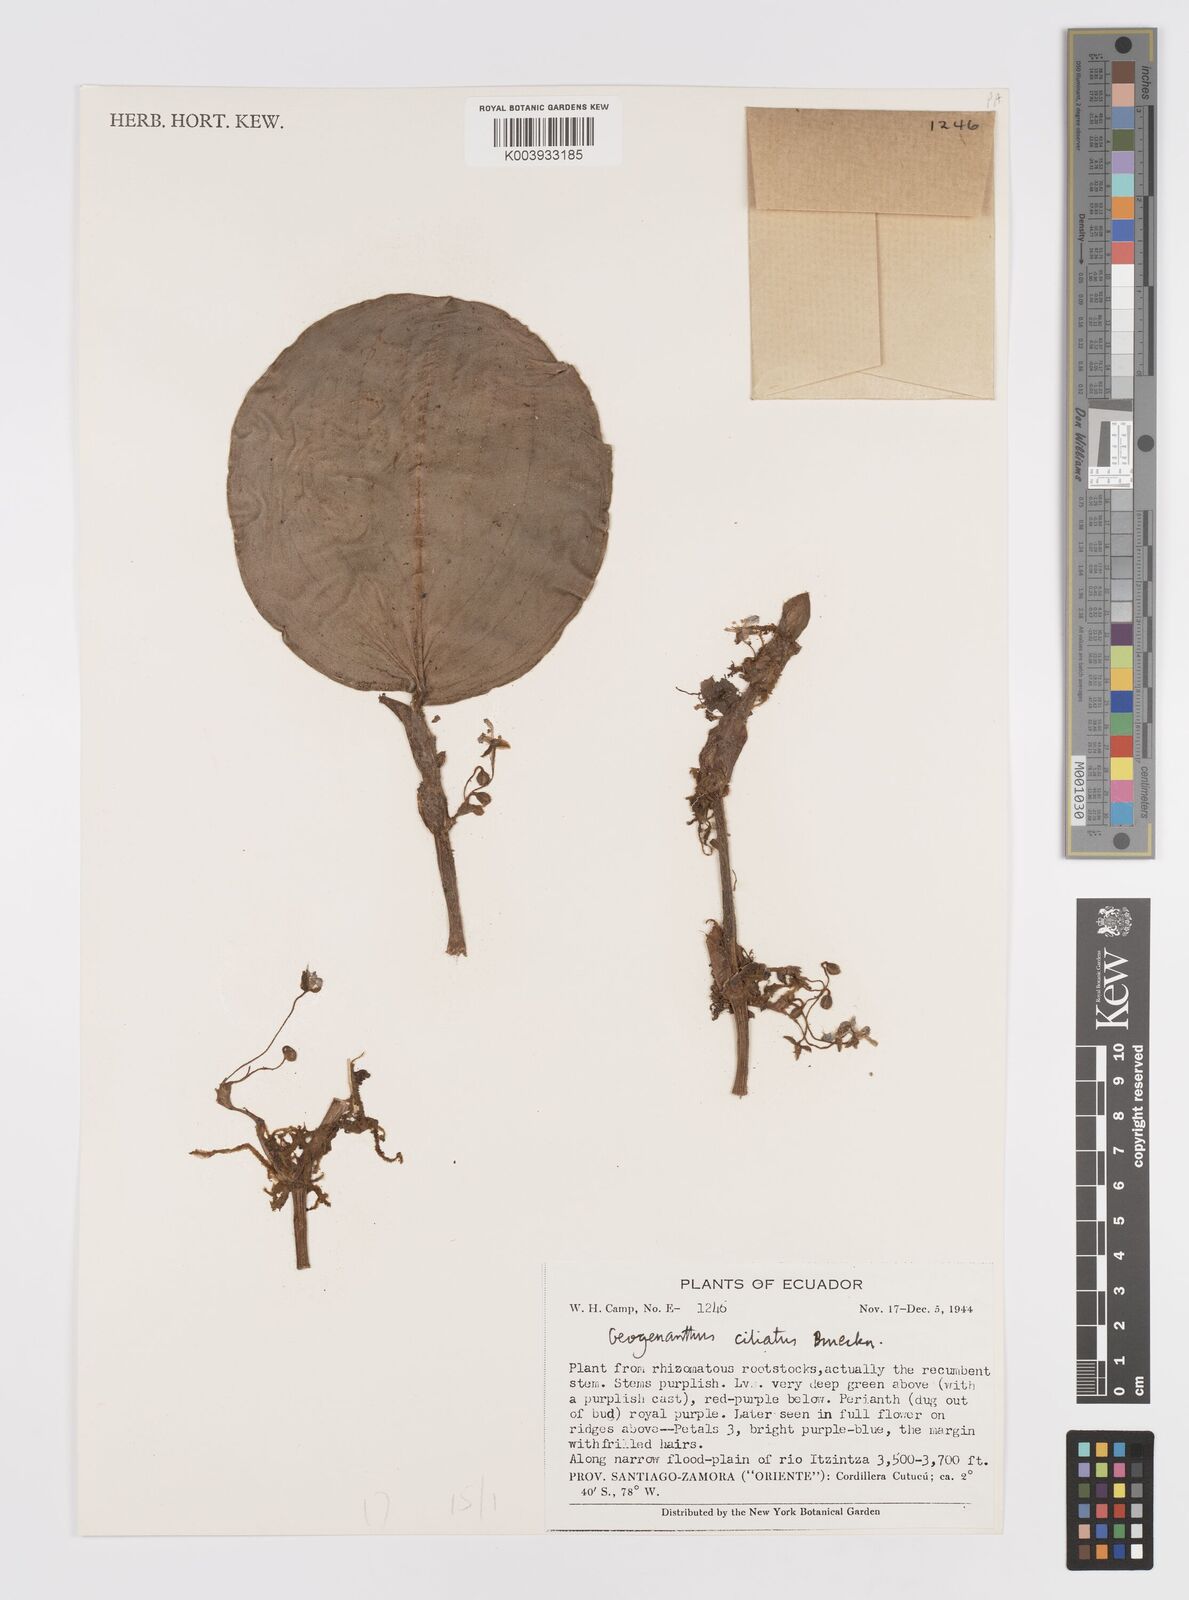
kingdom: Plantae
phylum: Tracheophyta
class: Liliopsida
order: Commelinales
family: Commelinaceae
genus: Geogenanthus
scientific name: Geogenanthus ciliatus
